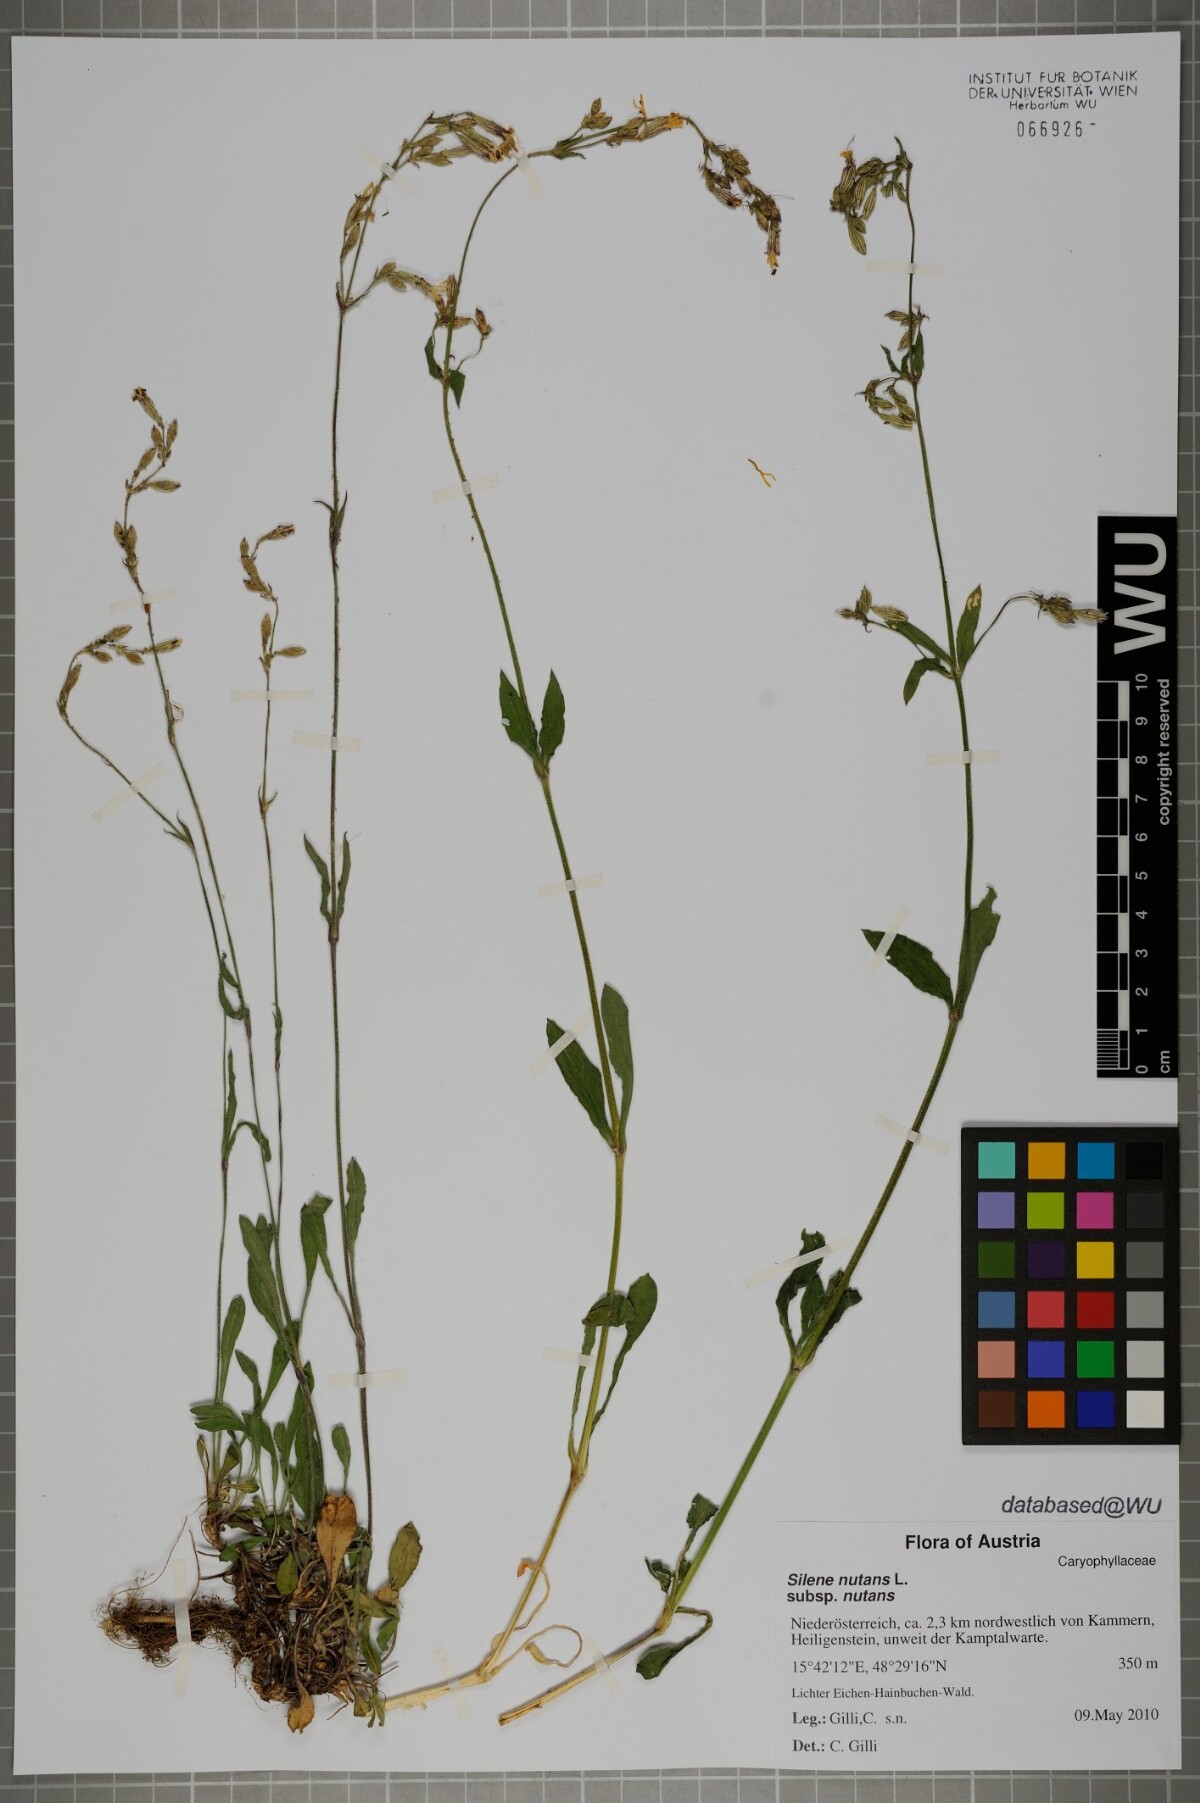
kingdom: Plantae
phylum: Tracheophyta
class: Magnoliopsida
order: Caryophyllales
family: Caryophyllaceae
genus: Silene
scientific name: Silene nutans
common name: Nottingham catchfly
